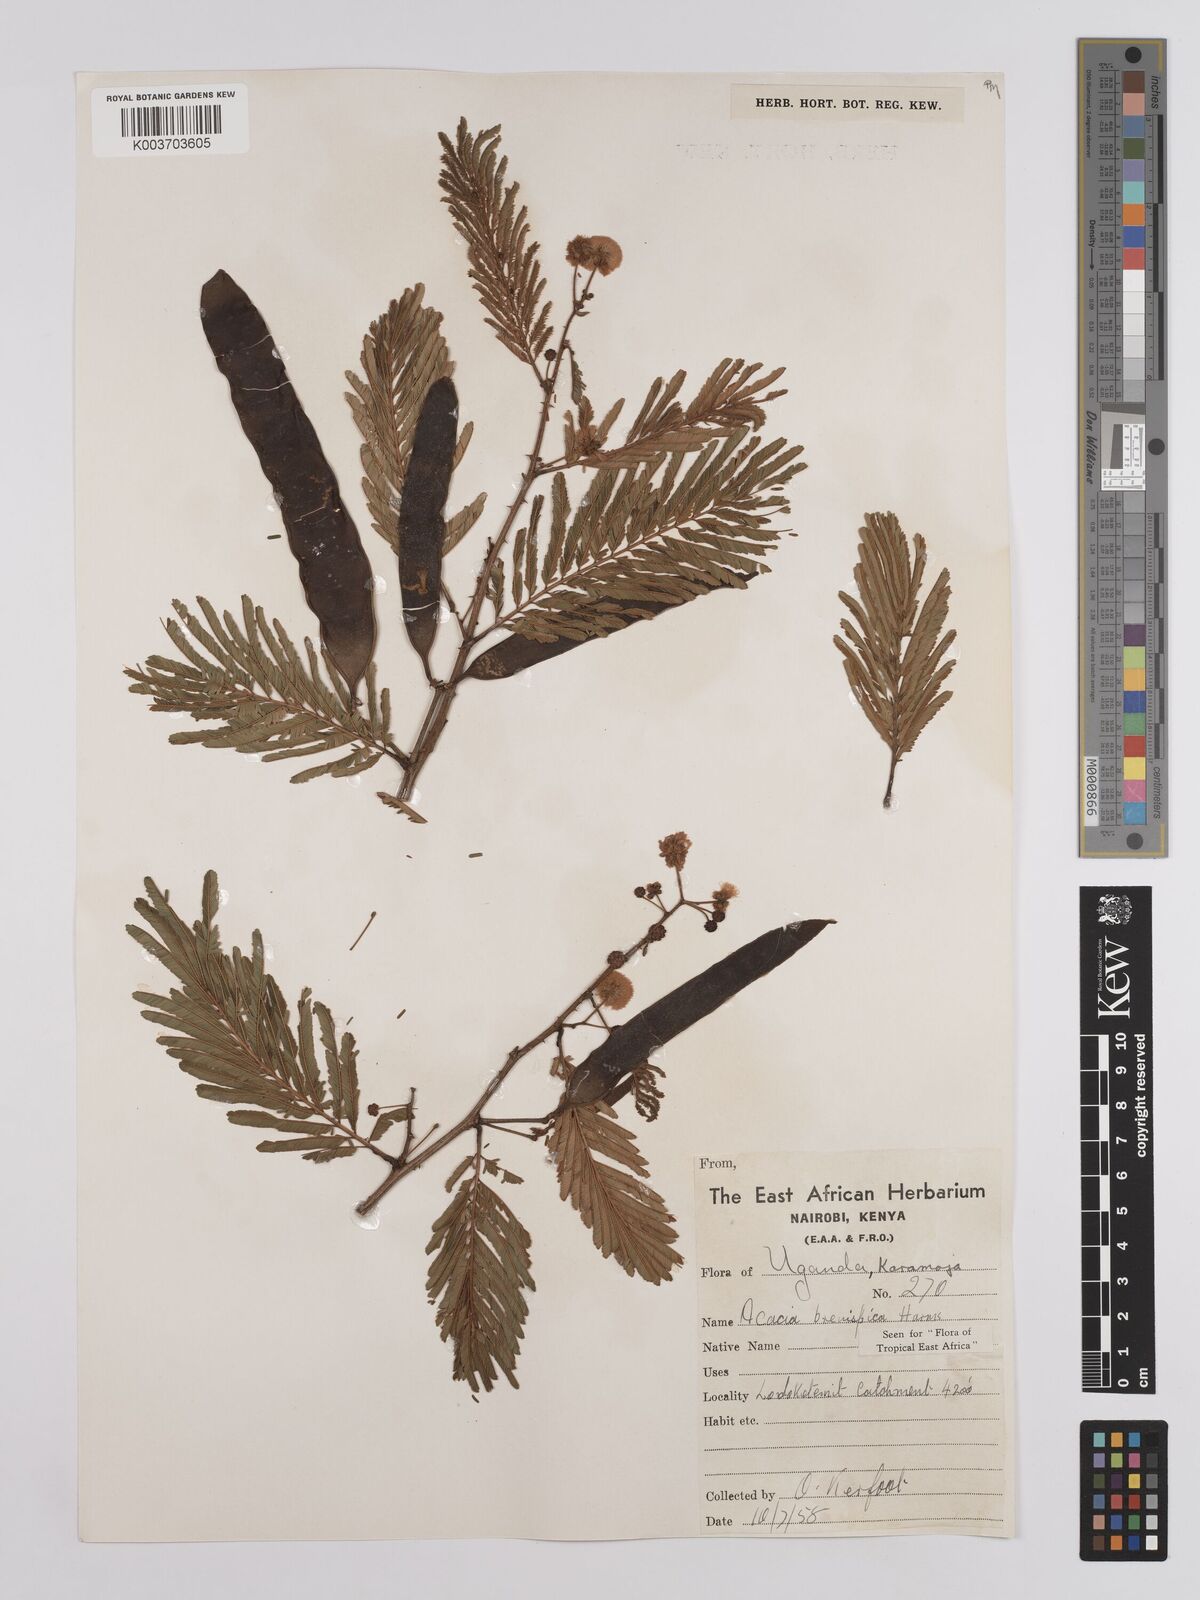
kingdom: Plantae
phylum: Tracheophyta
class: Magnoliopsida
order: Fabales
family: Fabaceae
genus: Senegalia
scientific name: Senegalia brevispica
